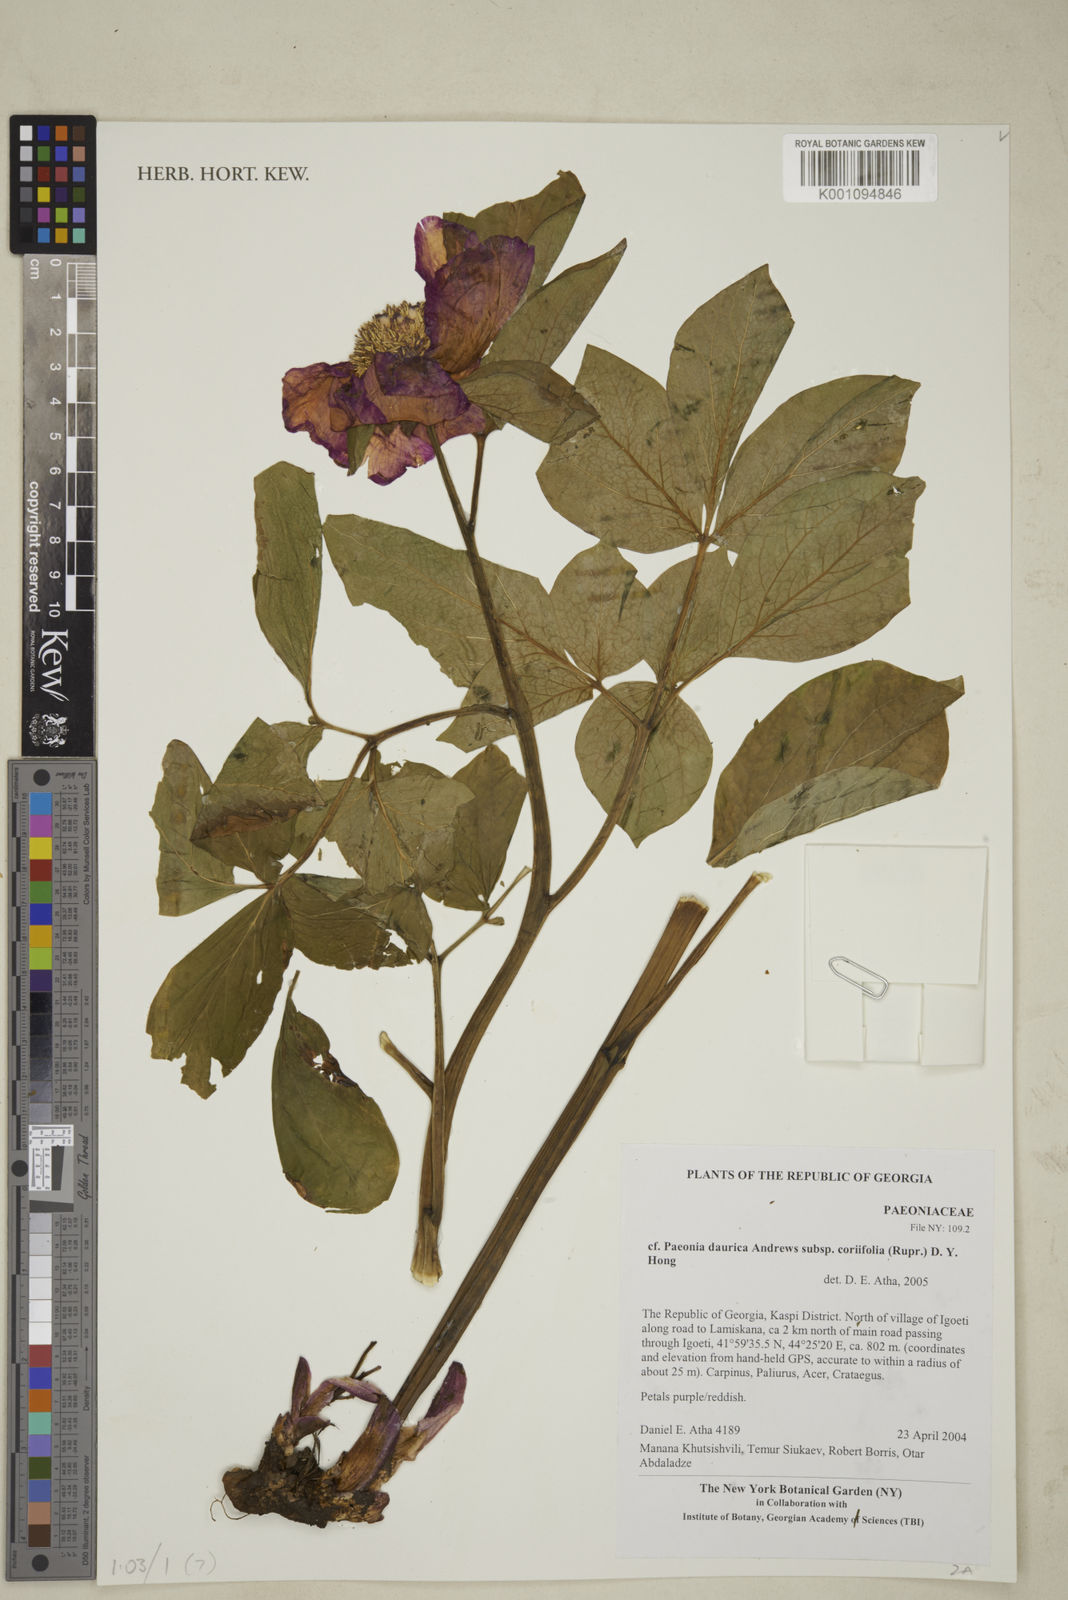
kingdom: Plantae
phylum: Tracheophyta
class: Magnoliopsida
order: Saxifragales
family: Paeoniaceae
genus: Paeonia
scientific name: Paeonia daurica
